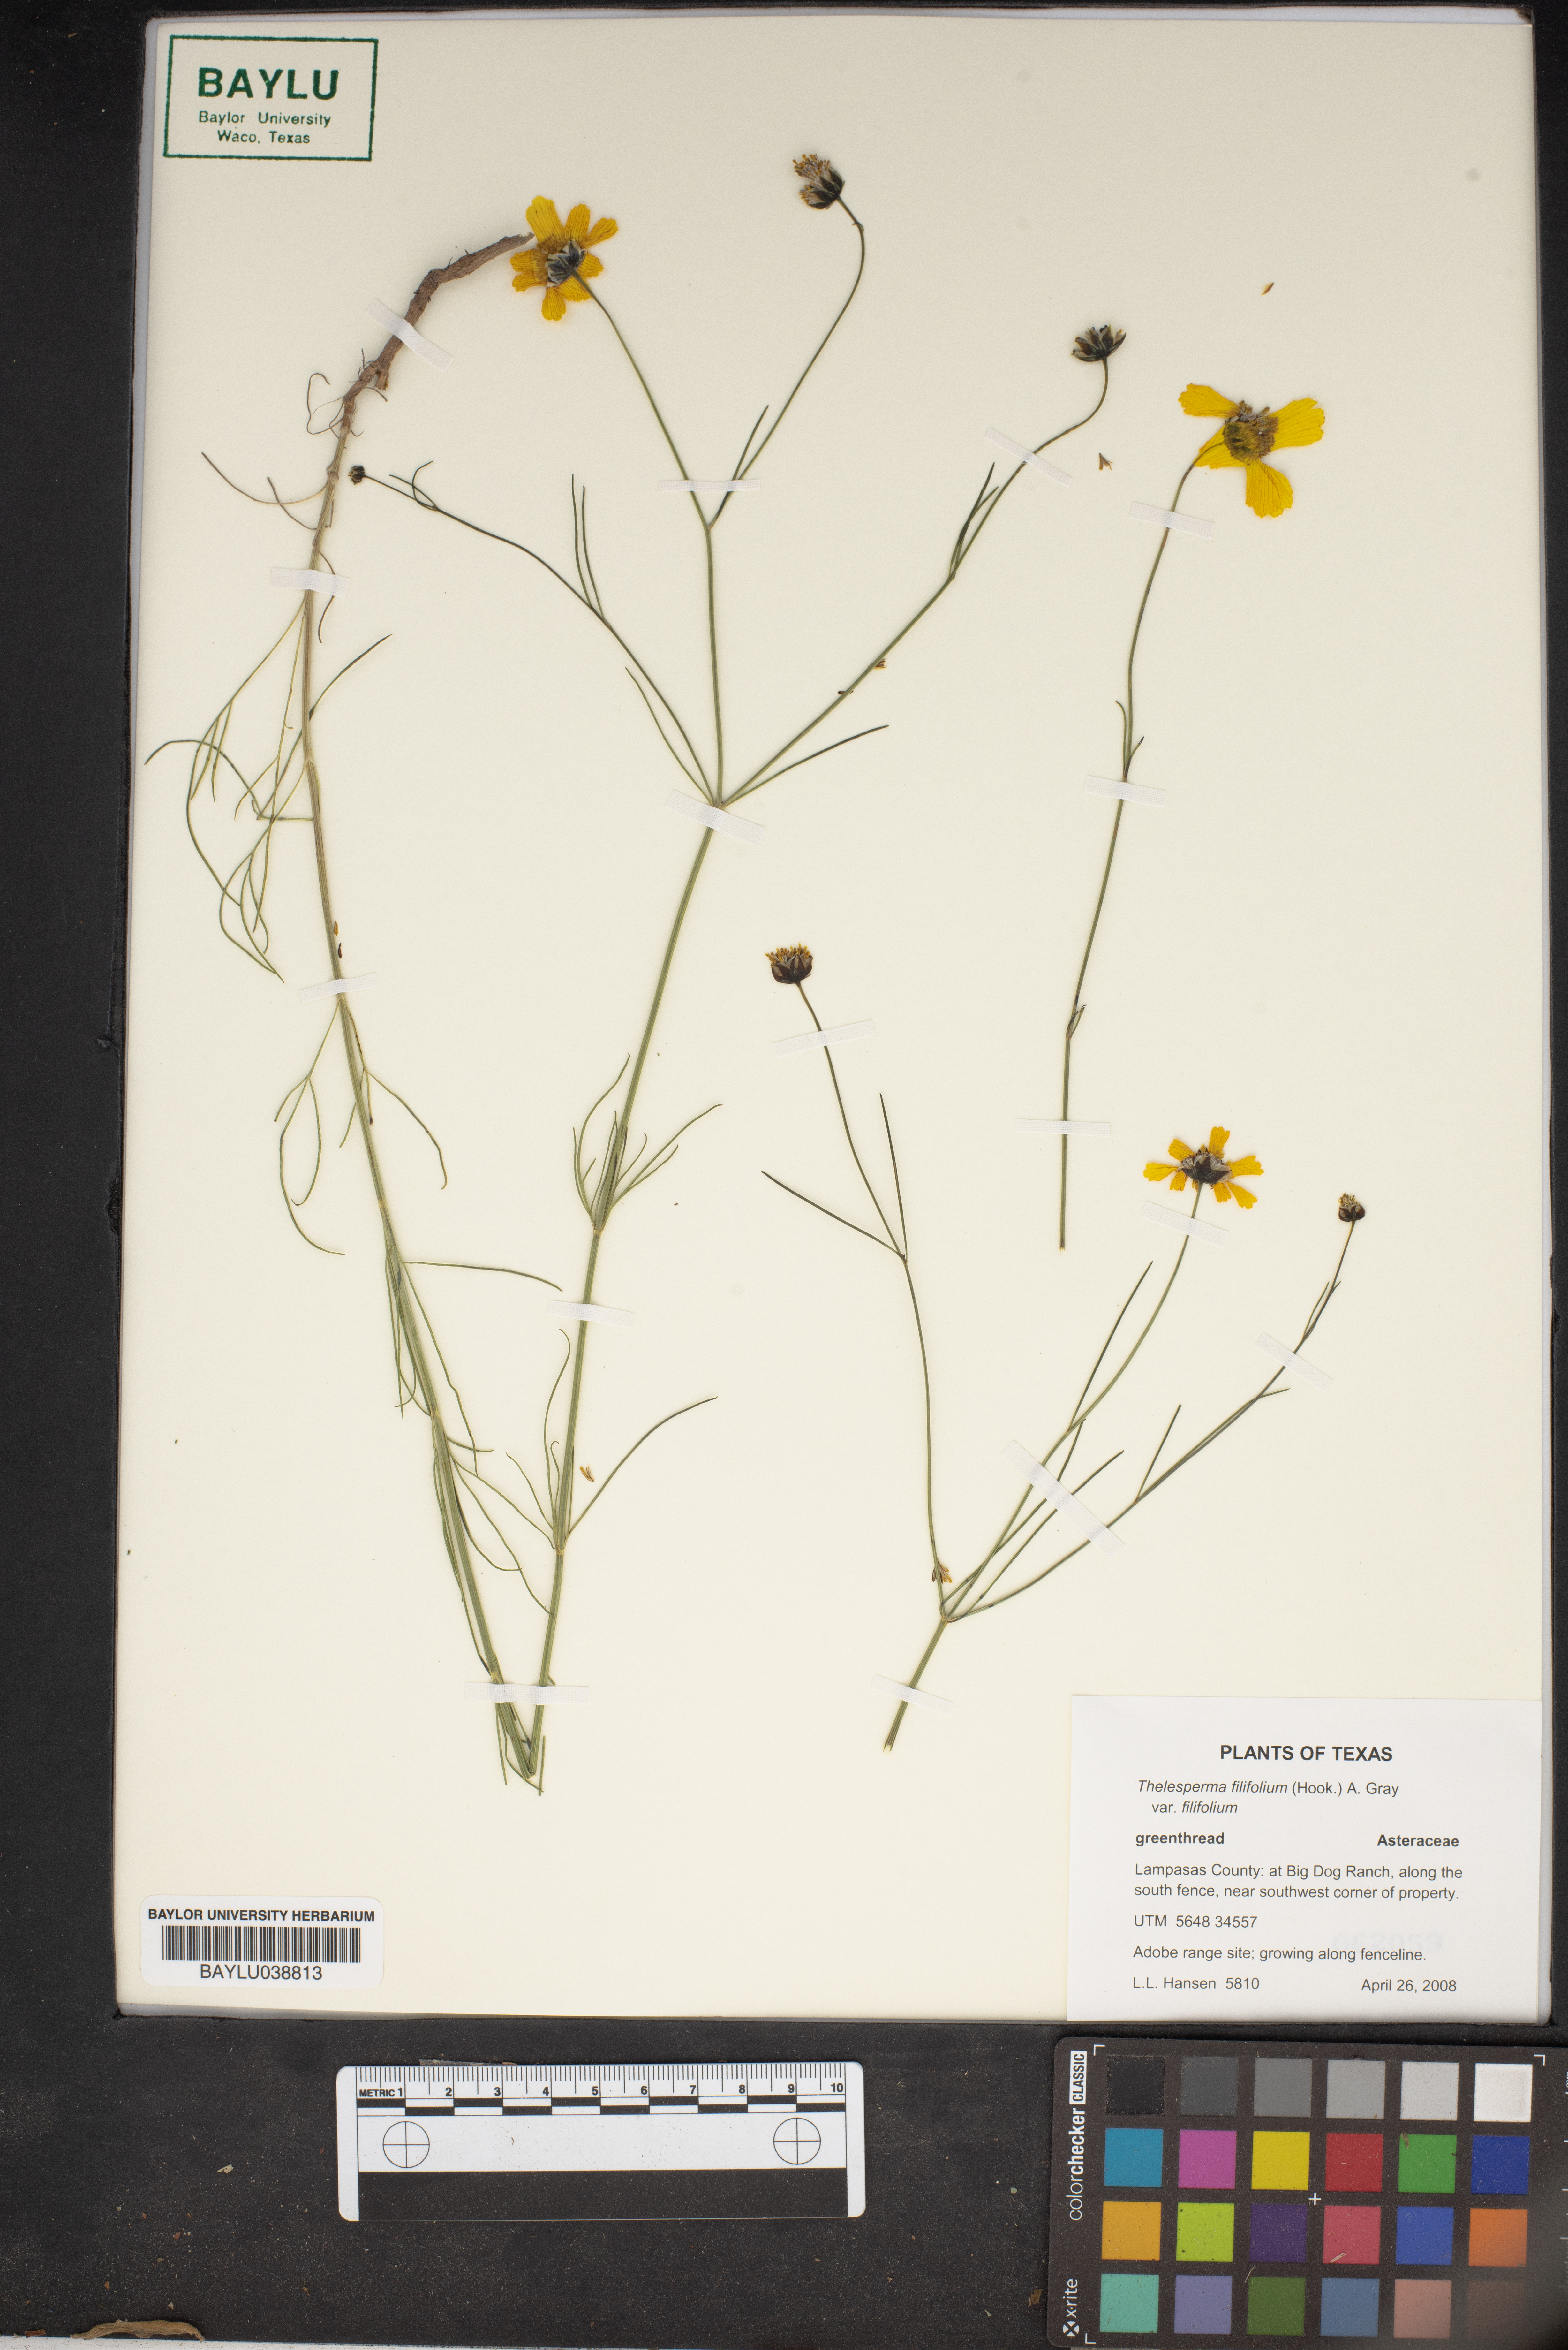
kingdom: Plantae
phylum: Tracheophyta
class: Magnoliopsida
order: Asterales
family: Asteraceae
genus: Thelesperma
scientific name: Thelesperma filifolium
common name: Stiff greenthread
